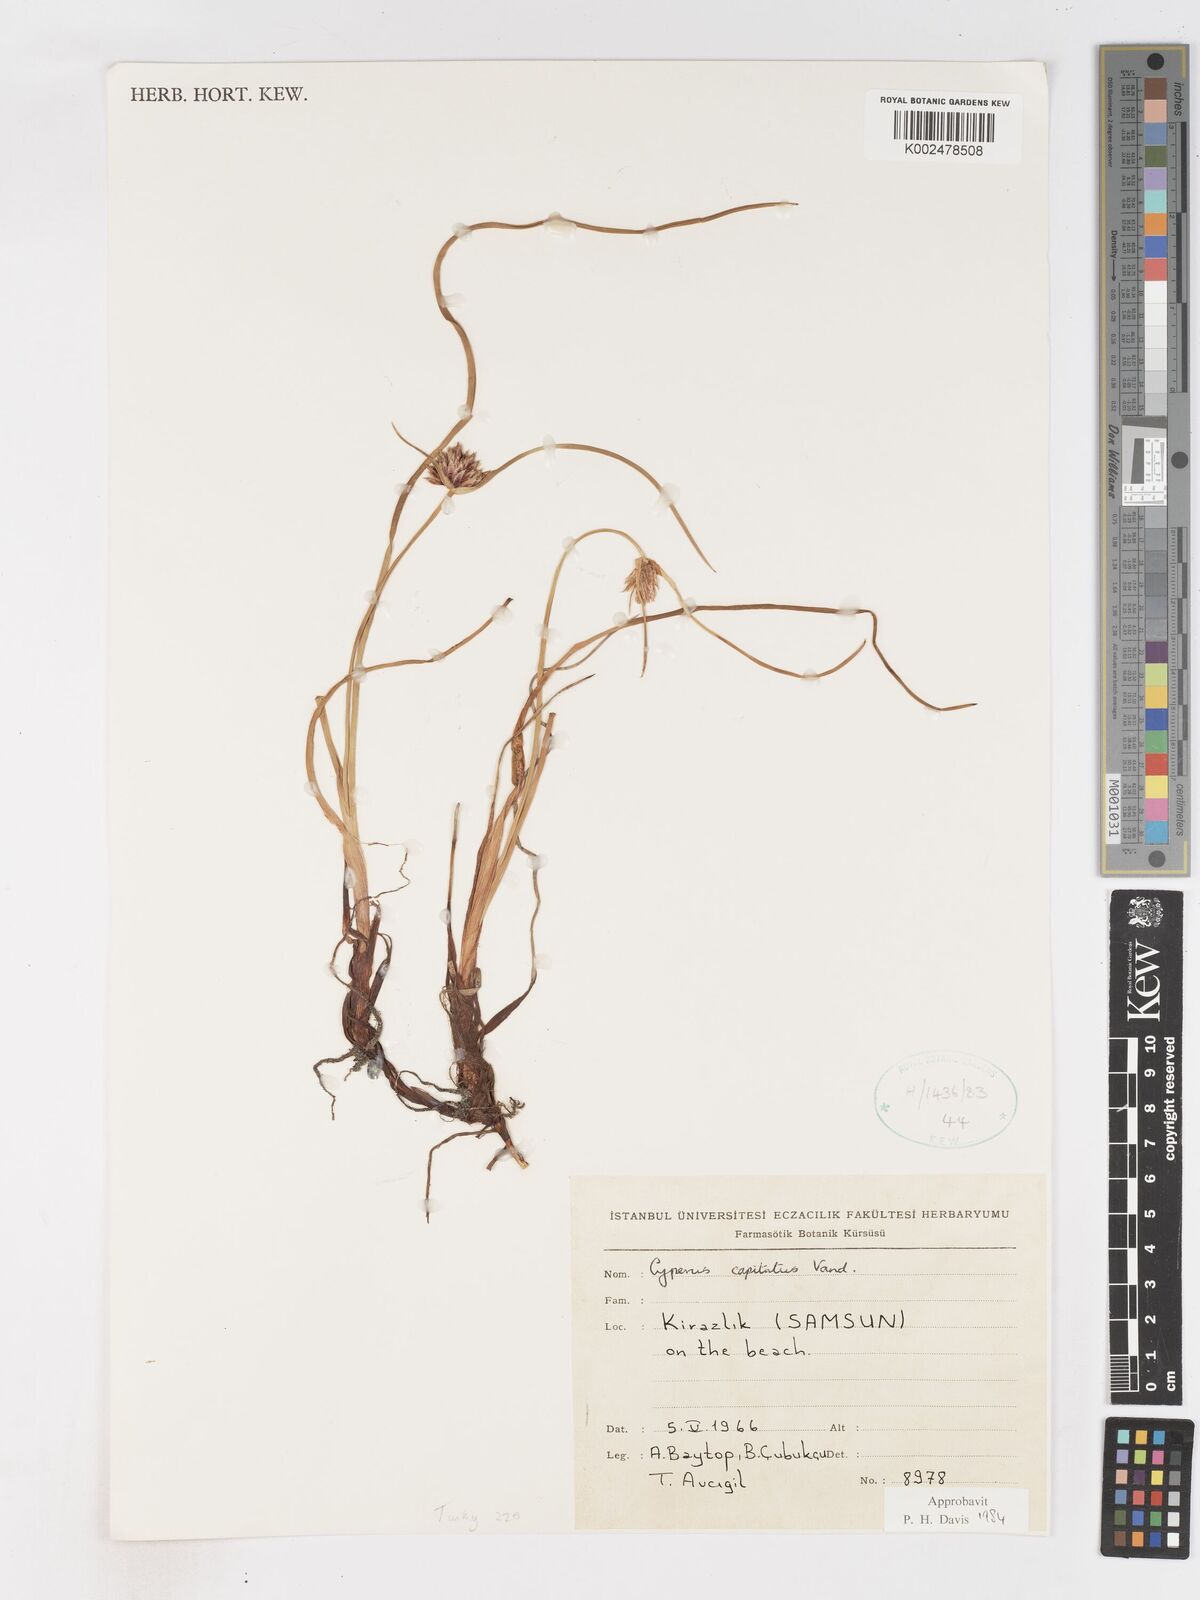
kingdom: Plantae
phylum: Tracheophyta
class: Liliopsida
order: Poales
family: Cyperaceae
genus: Cyperus
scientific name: Cyperus capitatus
